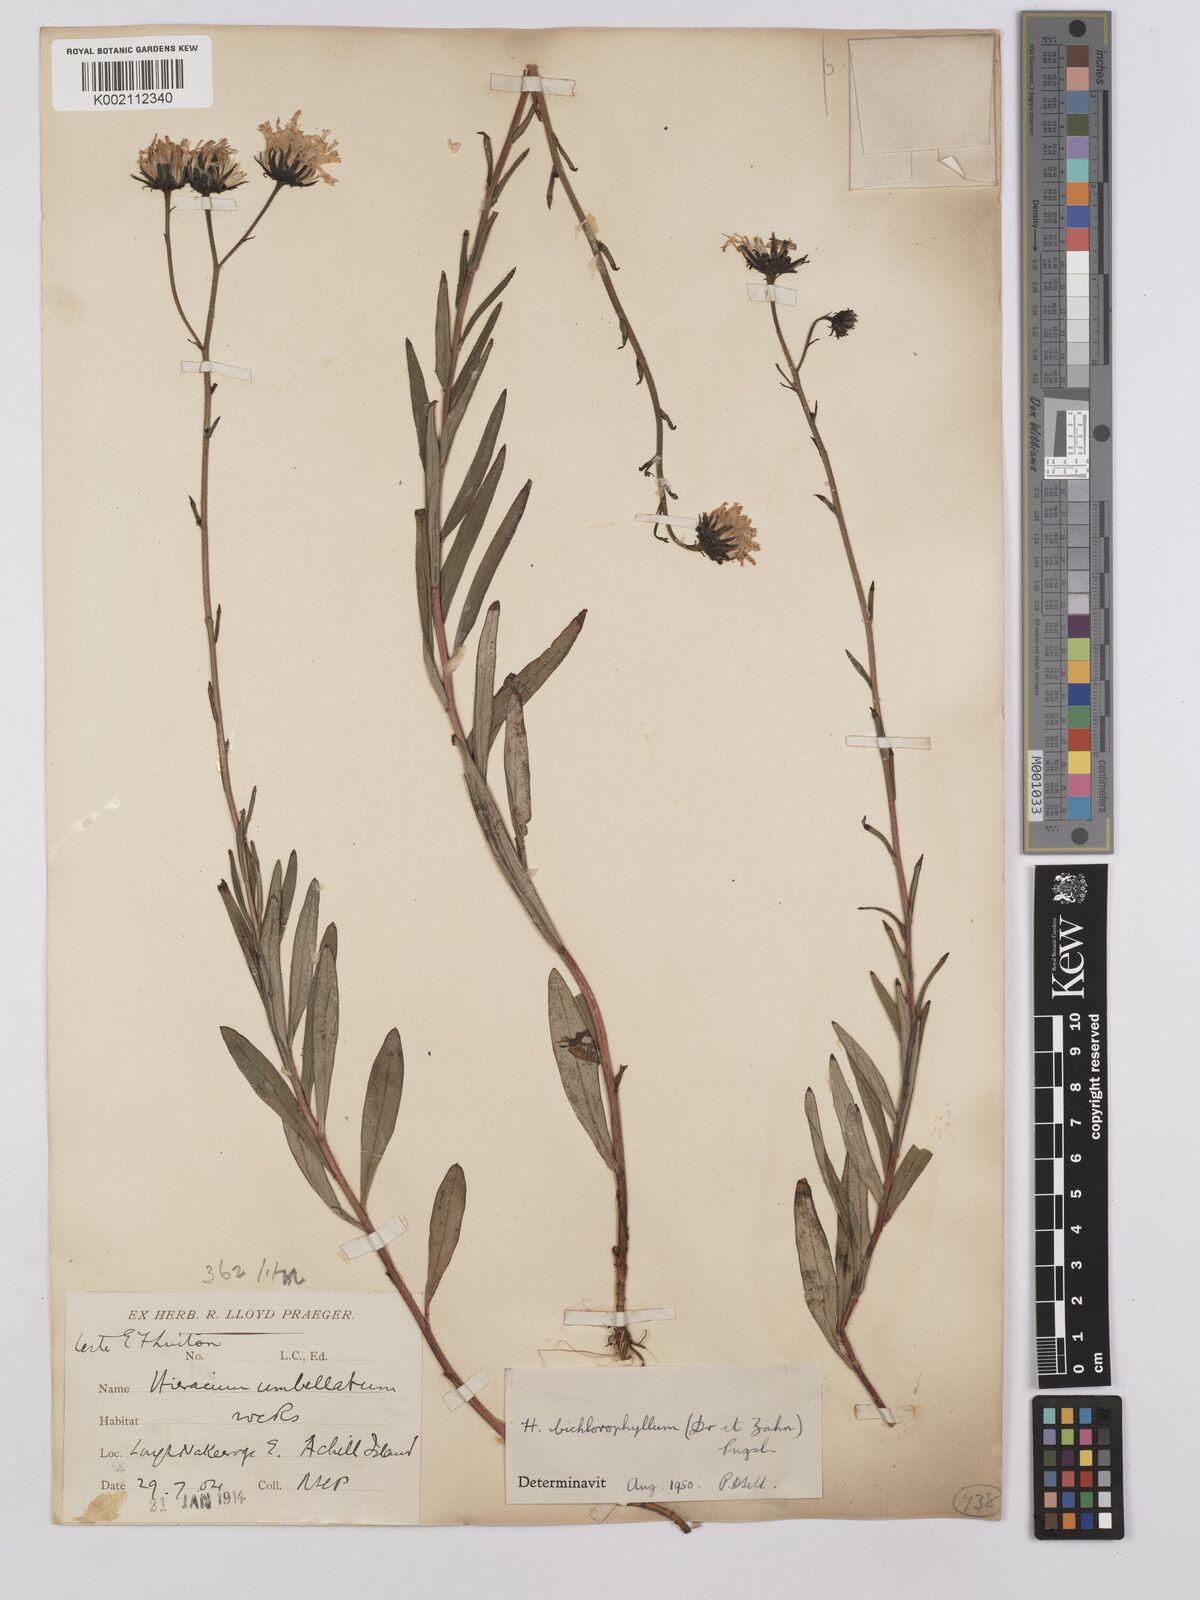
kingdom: Plantae
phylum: Tracheophyta
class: Magnoliopsida
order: Asterales
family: Asteraceae
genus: Hieracium
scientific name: Hieracium umbellatum
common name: Northern hawkweed
